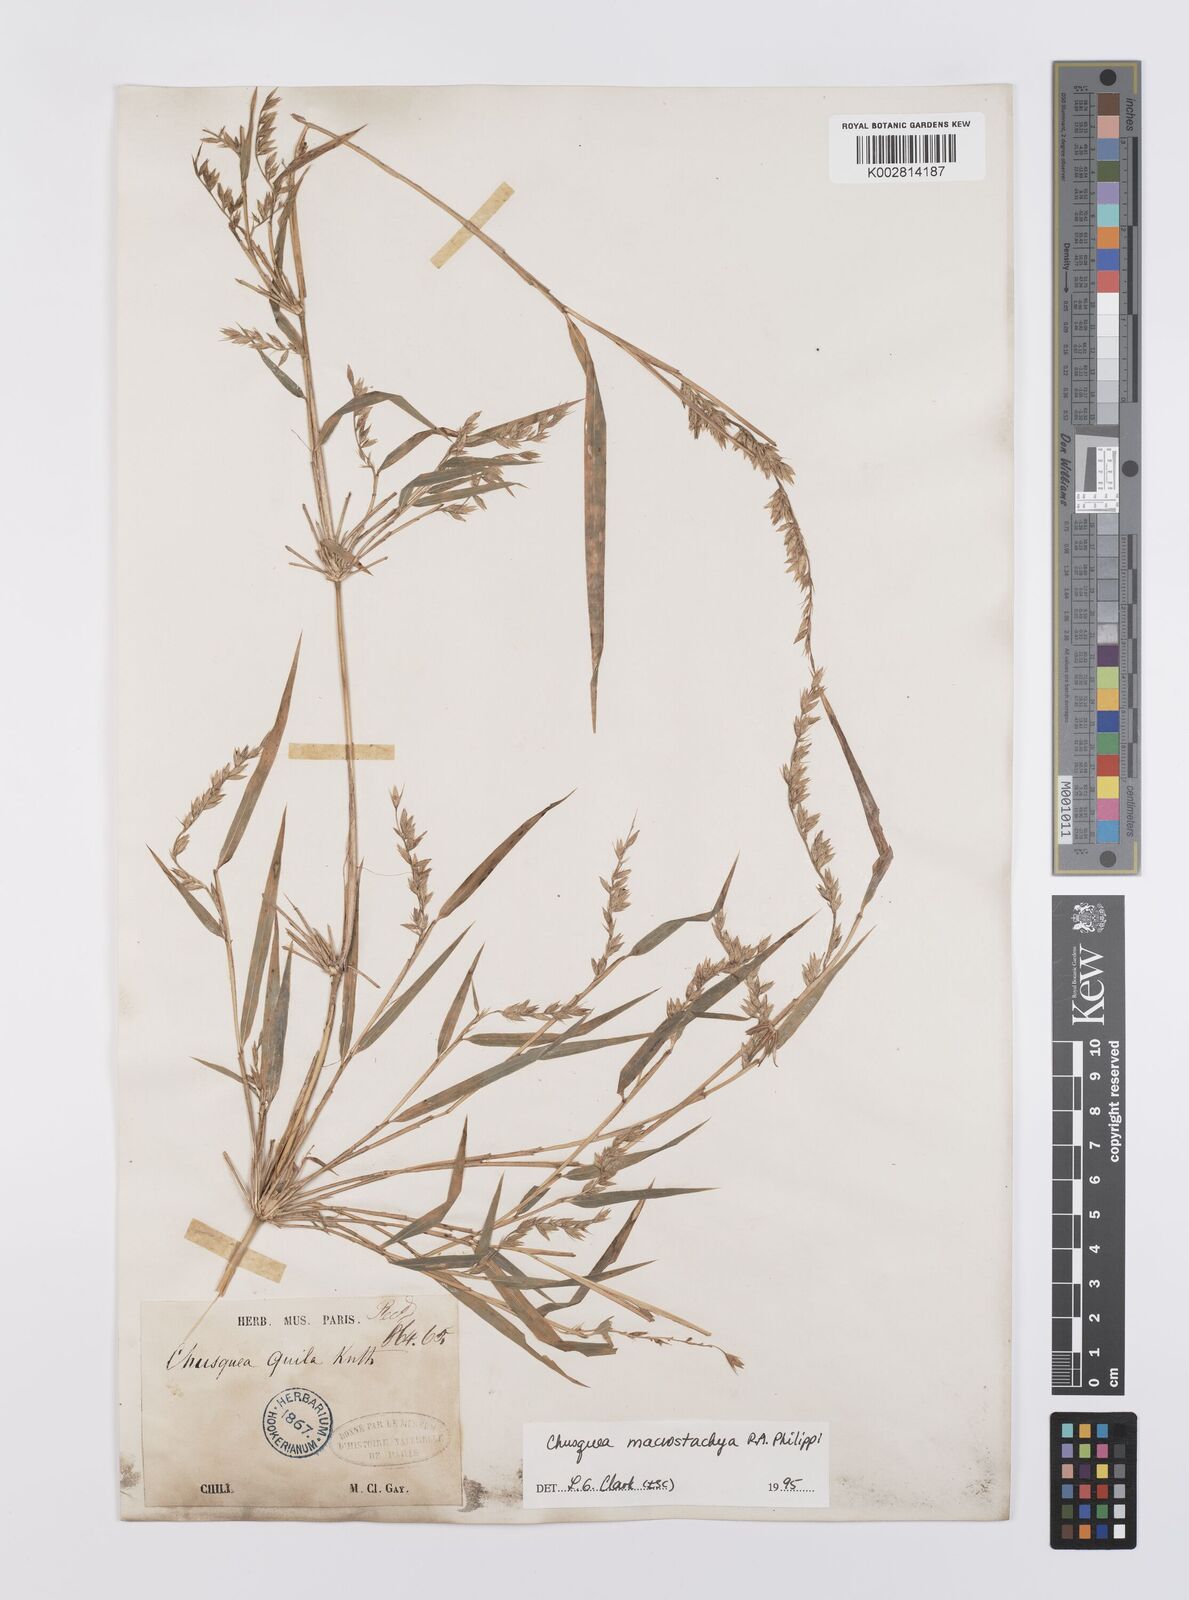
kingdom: Plantae
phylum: Tracheophyta
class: Liliopsida
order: Poales
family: Poaceae
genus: Chusquea
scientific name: Chusquea macrostachya
